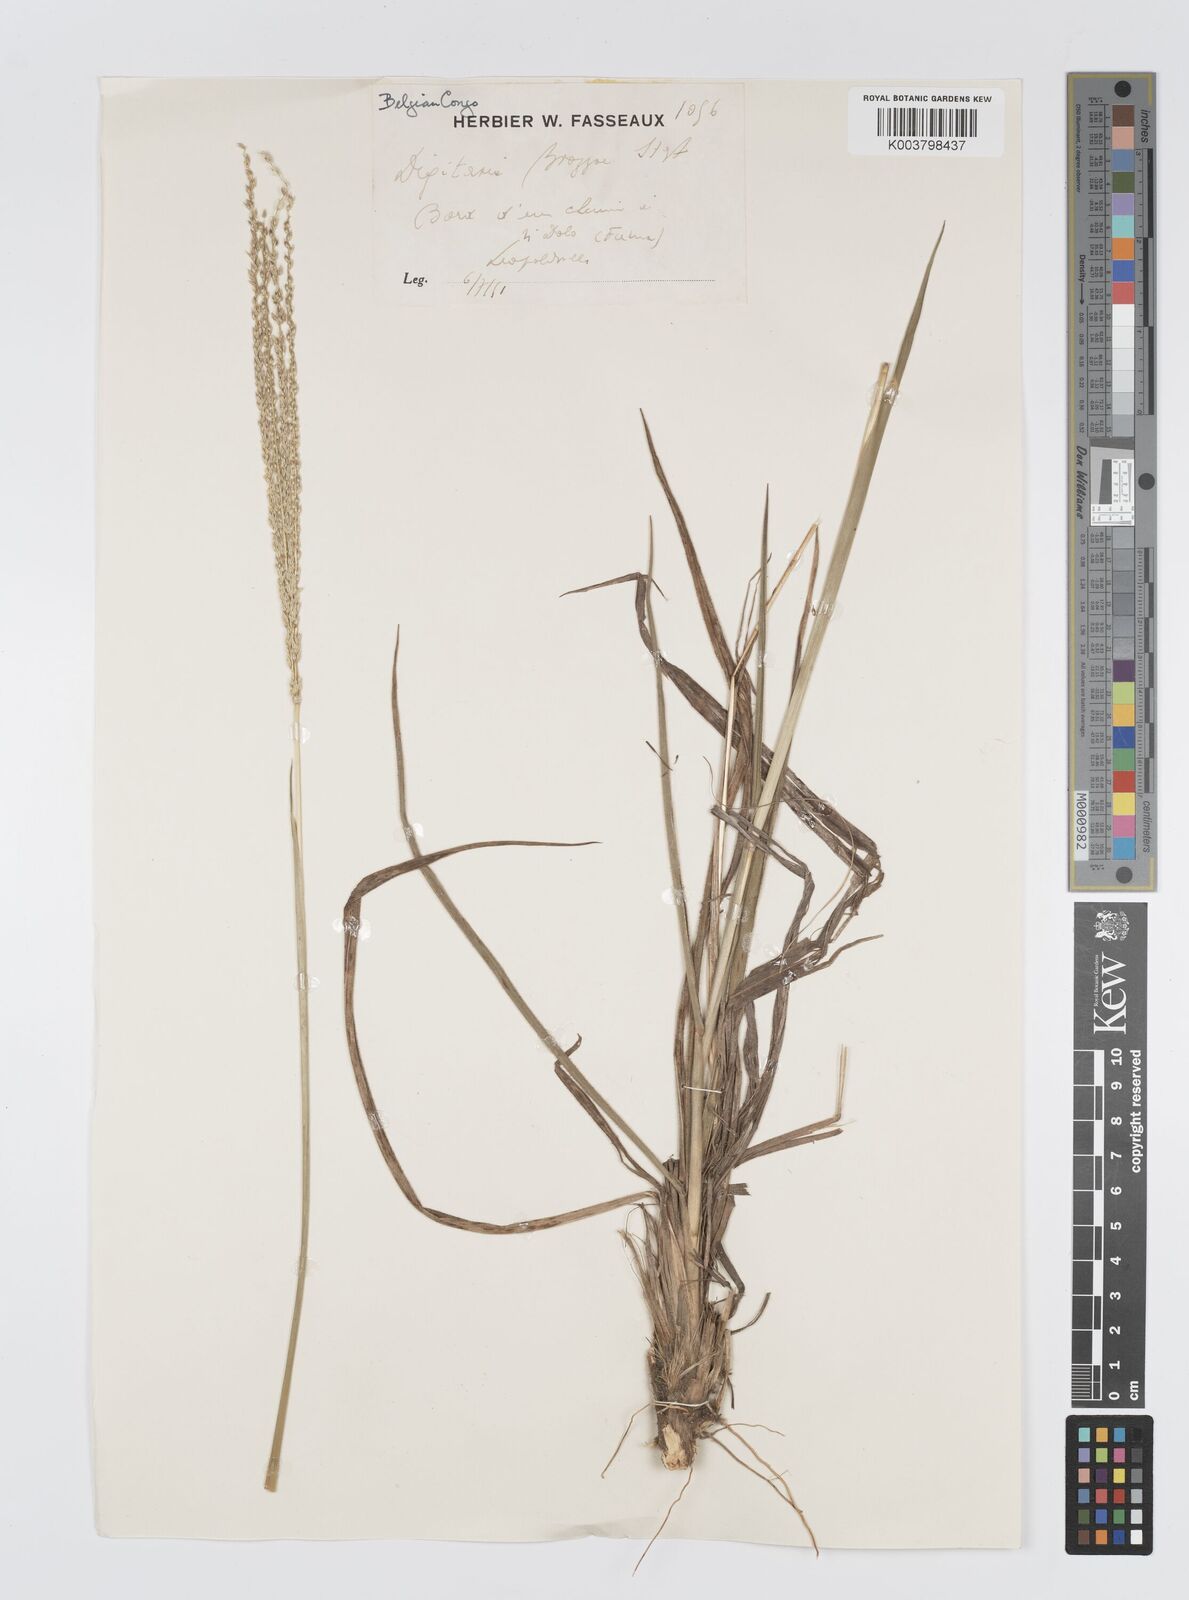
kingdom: Plantae
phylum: Tracheophyta
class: Liliopsida
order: Poales
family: Poaceae
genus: Digitaria
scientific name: Digitaria brazzae
